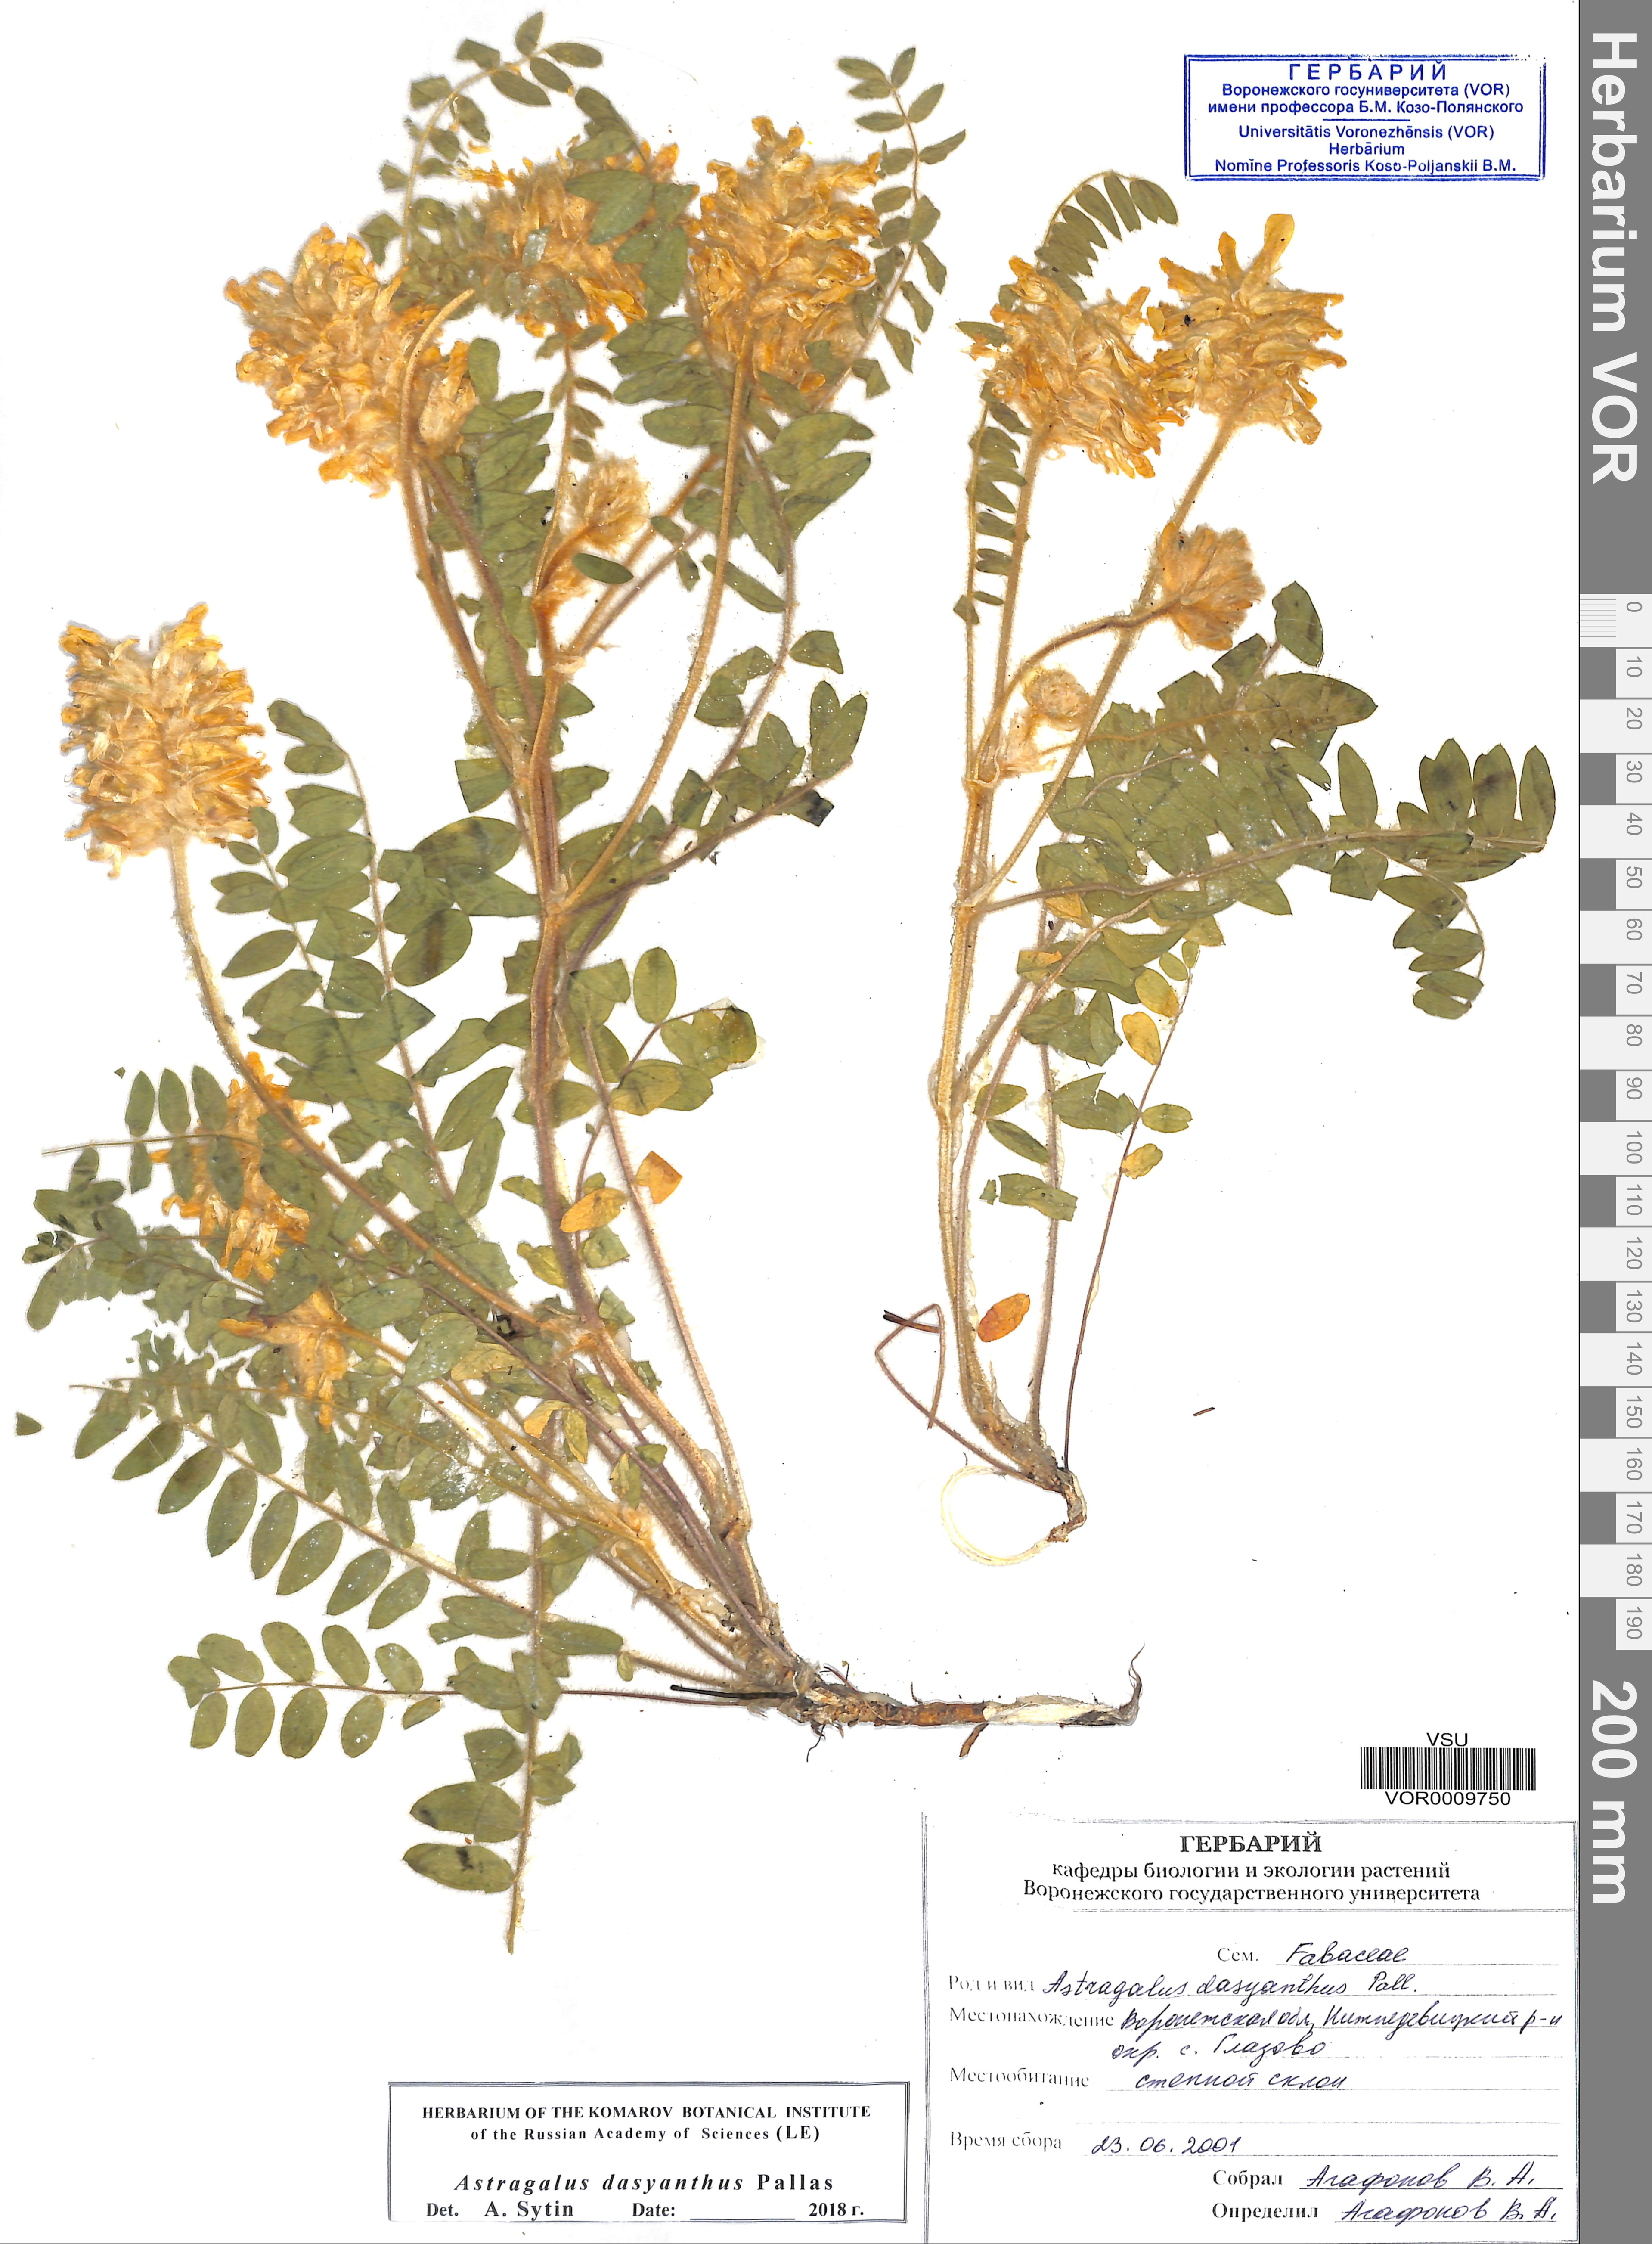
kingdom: Plantae
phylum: Tracheophyta
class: Magnoliopsida
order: Fabales
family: Fabaceae
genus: Astragalus
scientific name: Astragalus dasyanthus
